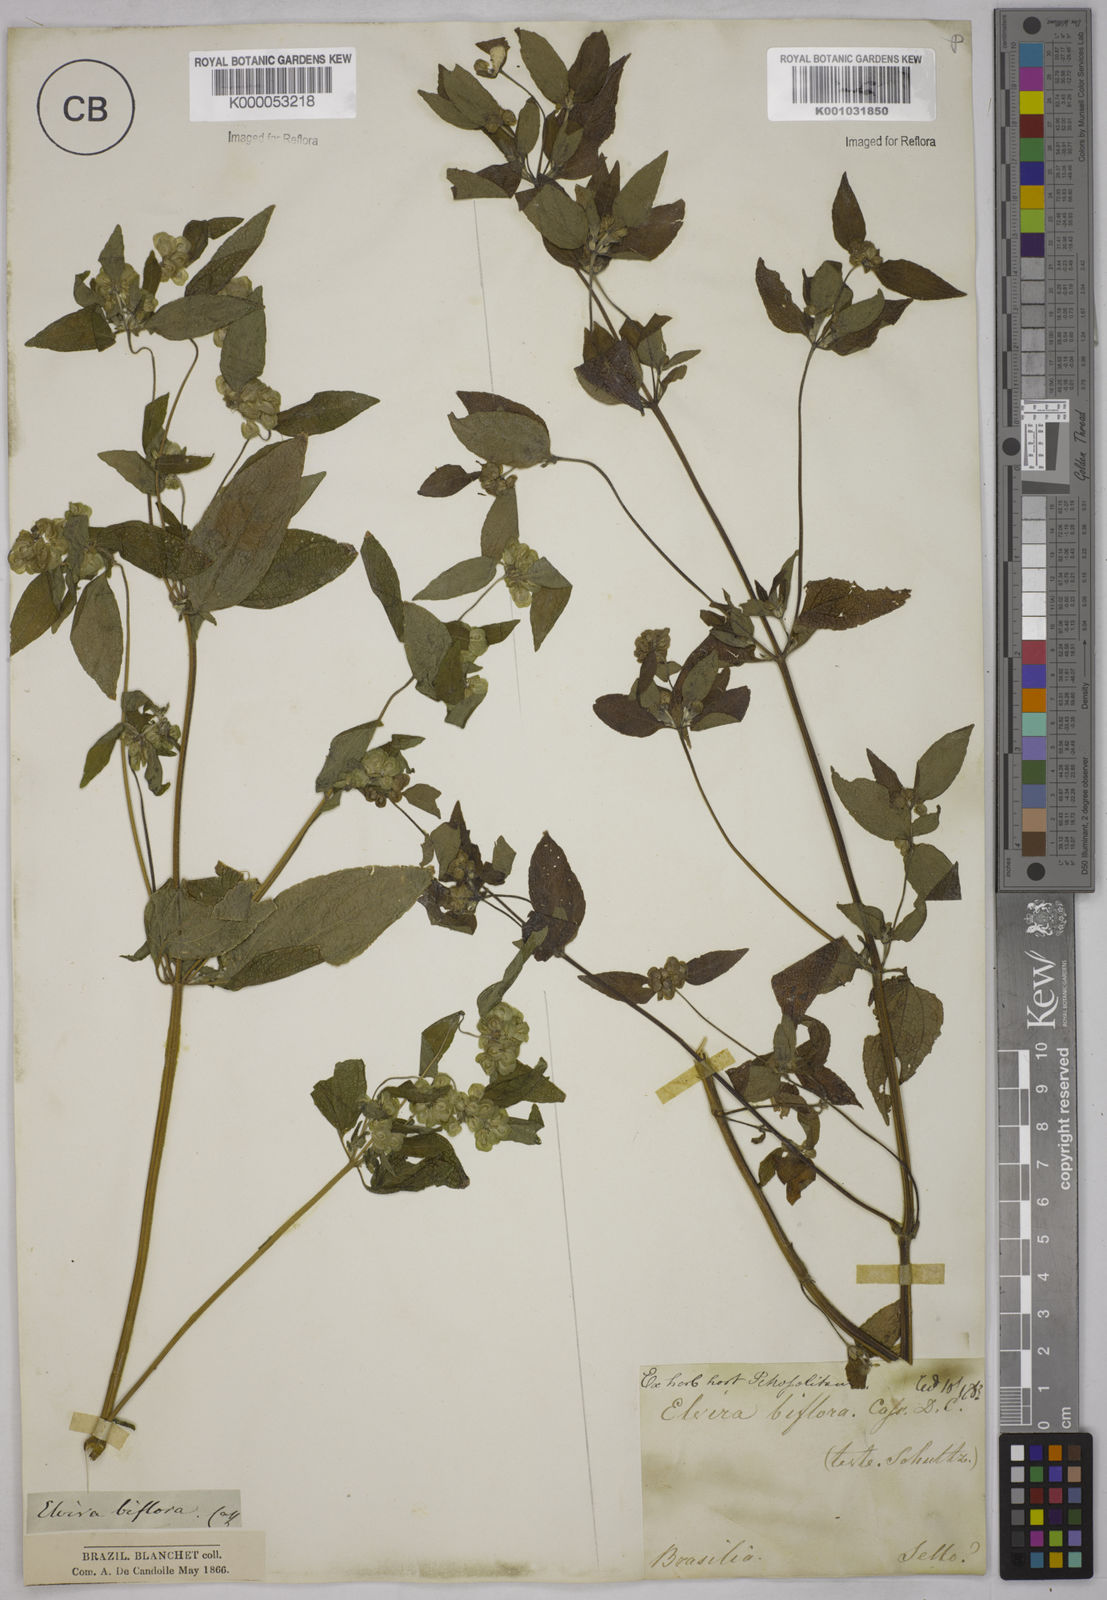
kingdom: Plantae
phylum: Tracheophyta
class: Magnoliopsida
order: Asterales
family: Asteraceae
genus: Delilia
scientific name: Delilia biflora
